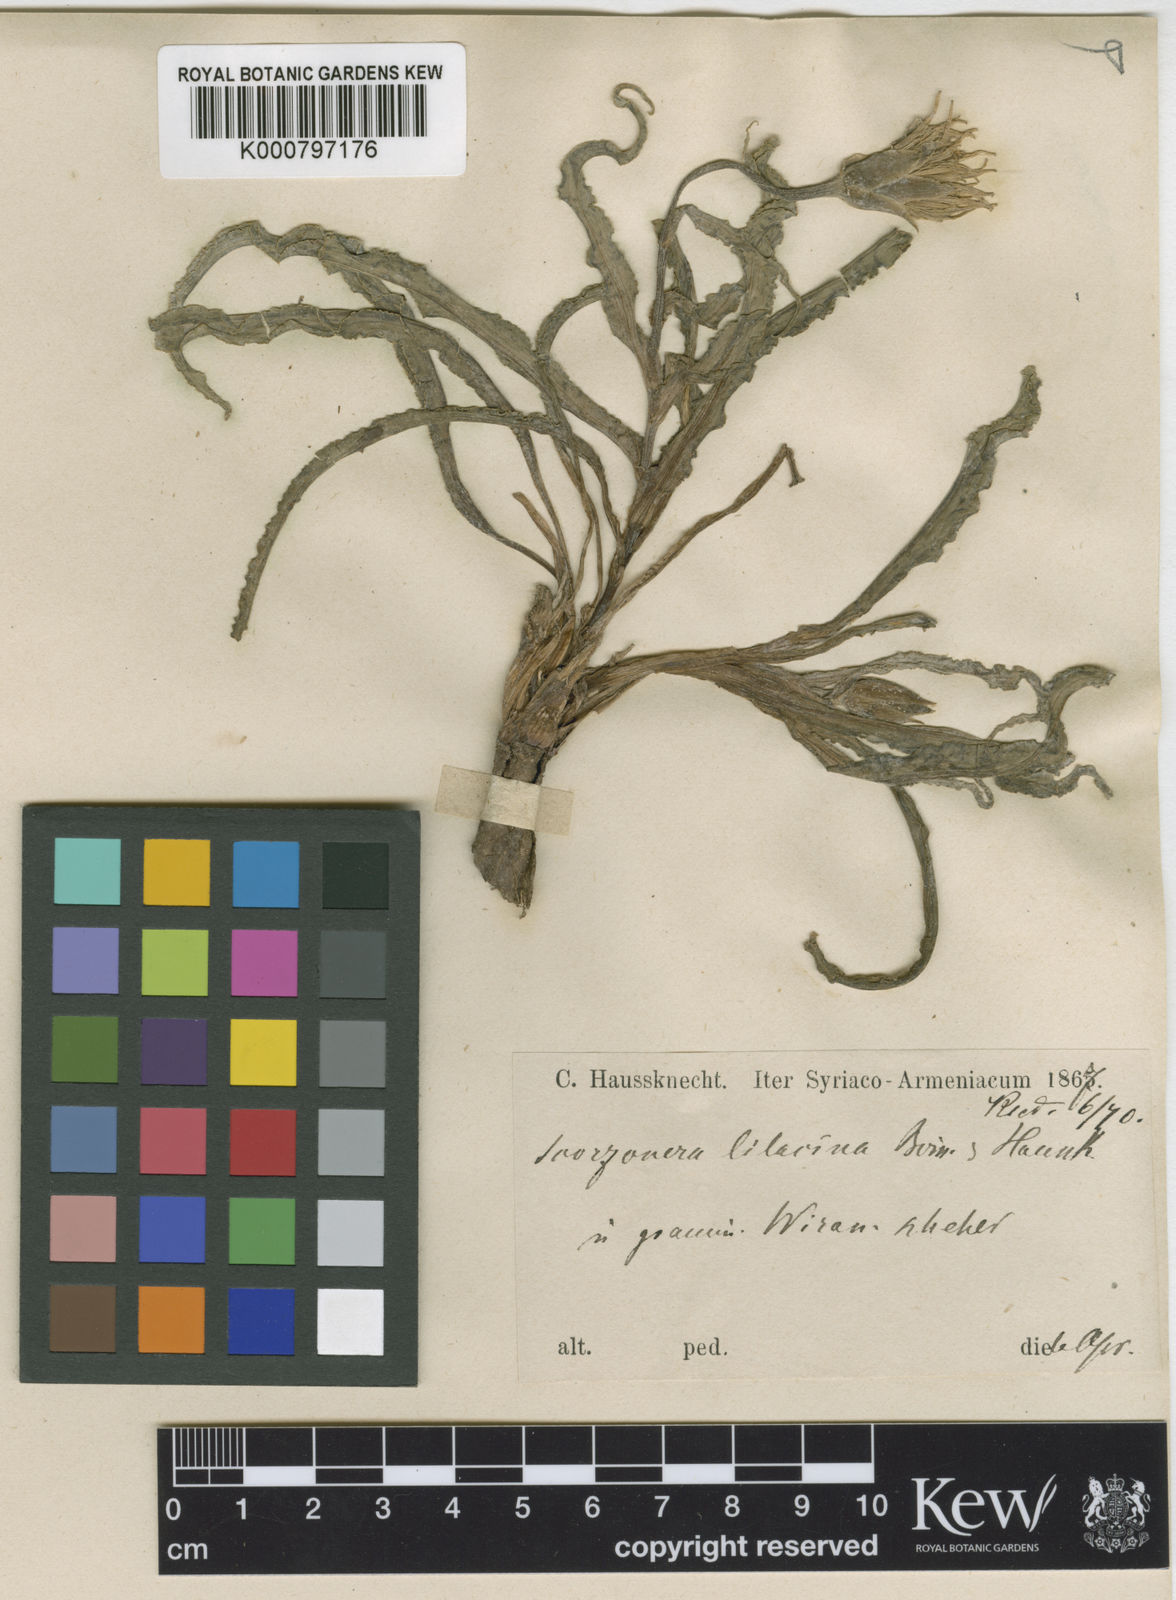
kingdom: Plantae
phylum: Tracheophyta
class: Magnoliopsida
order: Asterales
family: Asteraceae
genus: Scorzonera
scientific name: Scorzonera
